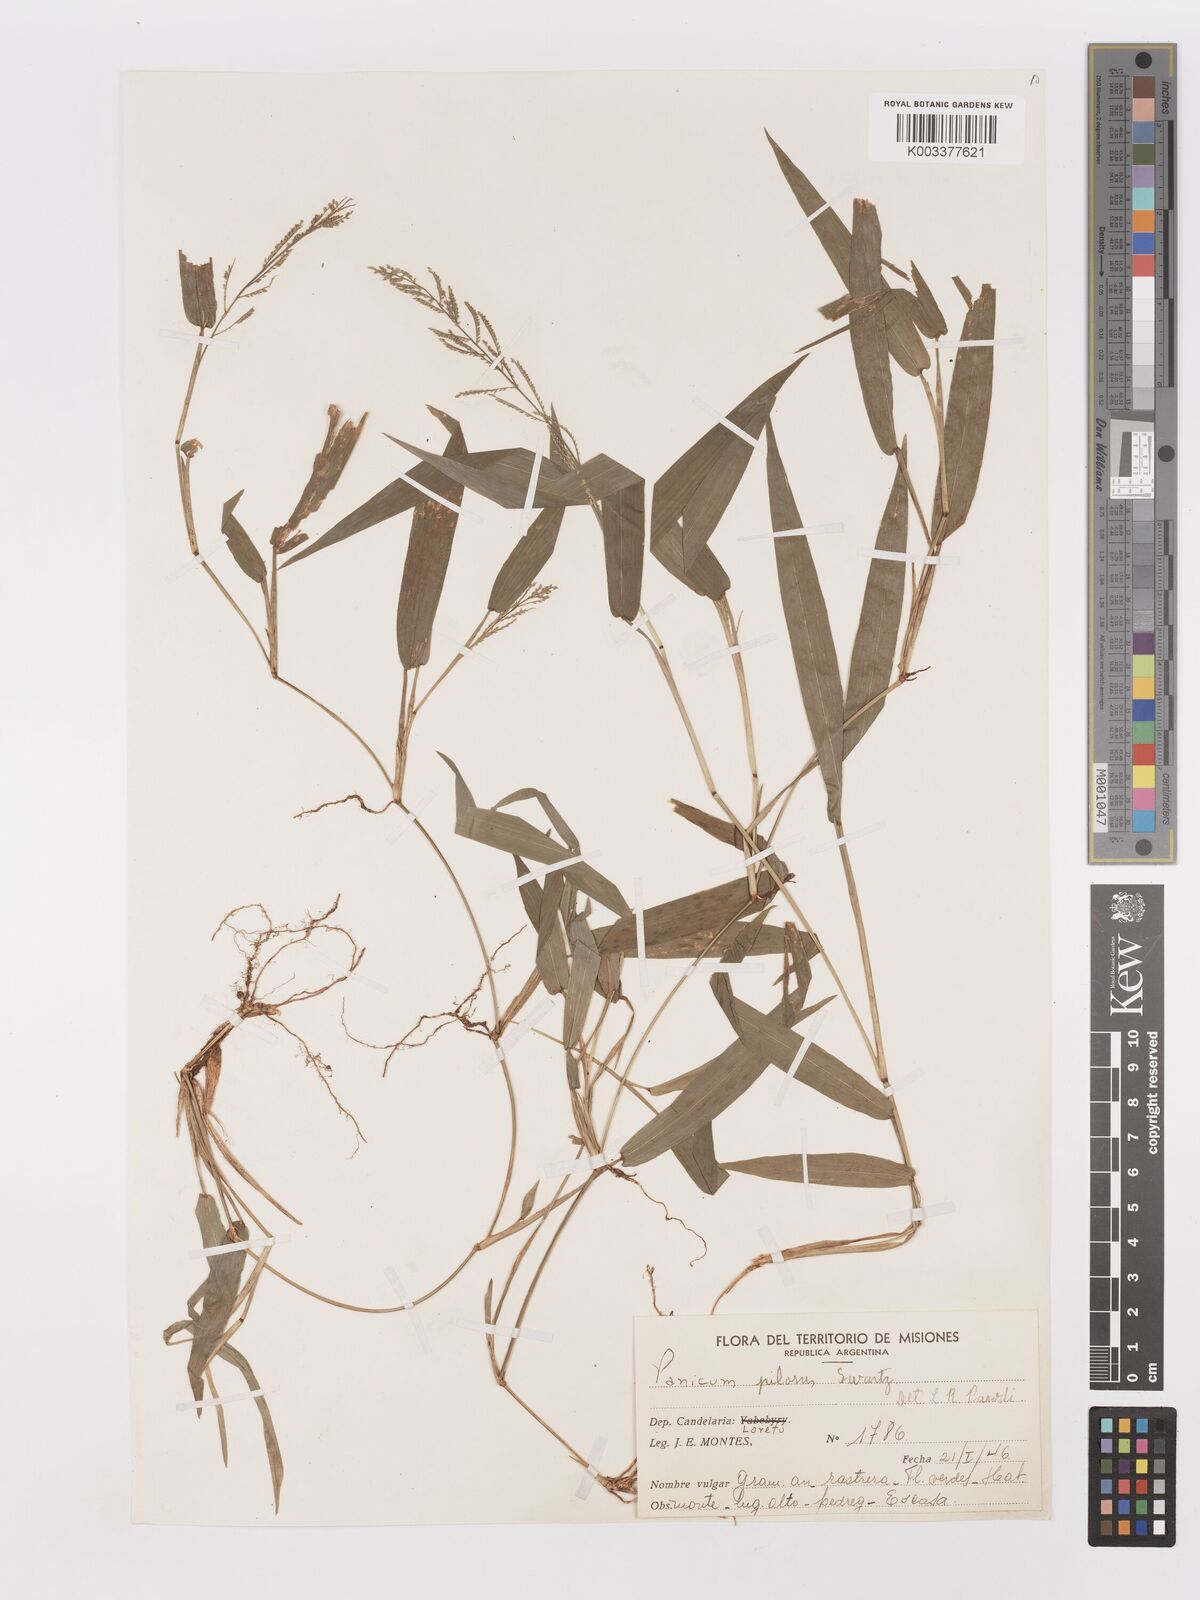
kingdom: Plantae
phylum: Tracheophyta
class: Liliopsida
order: Poales
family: Poaceae
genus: Panicum
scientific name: Panicum
